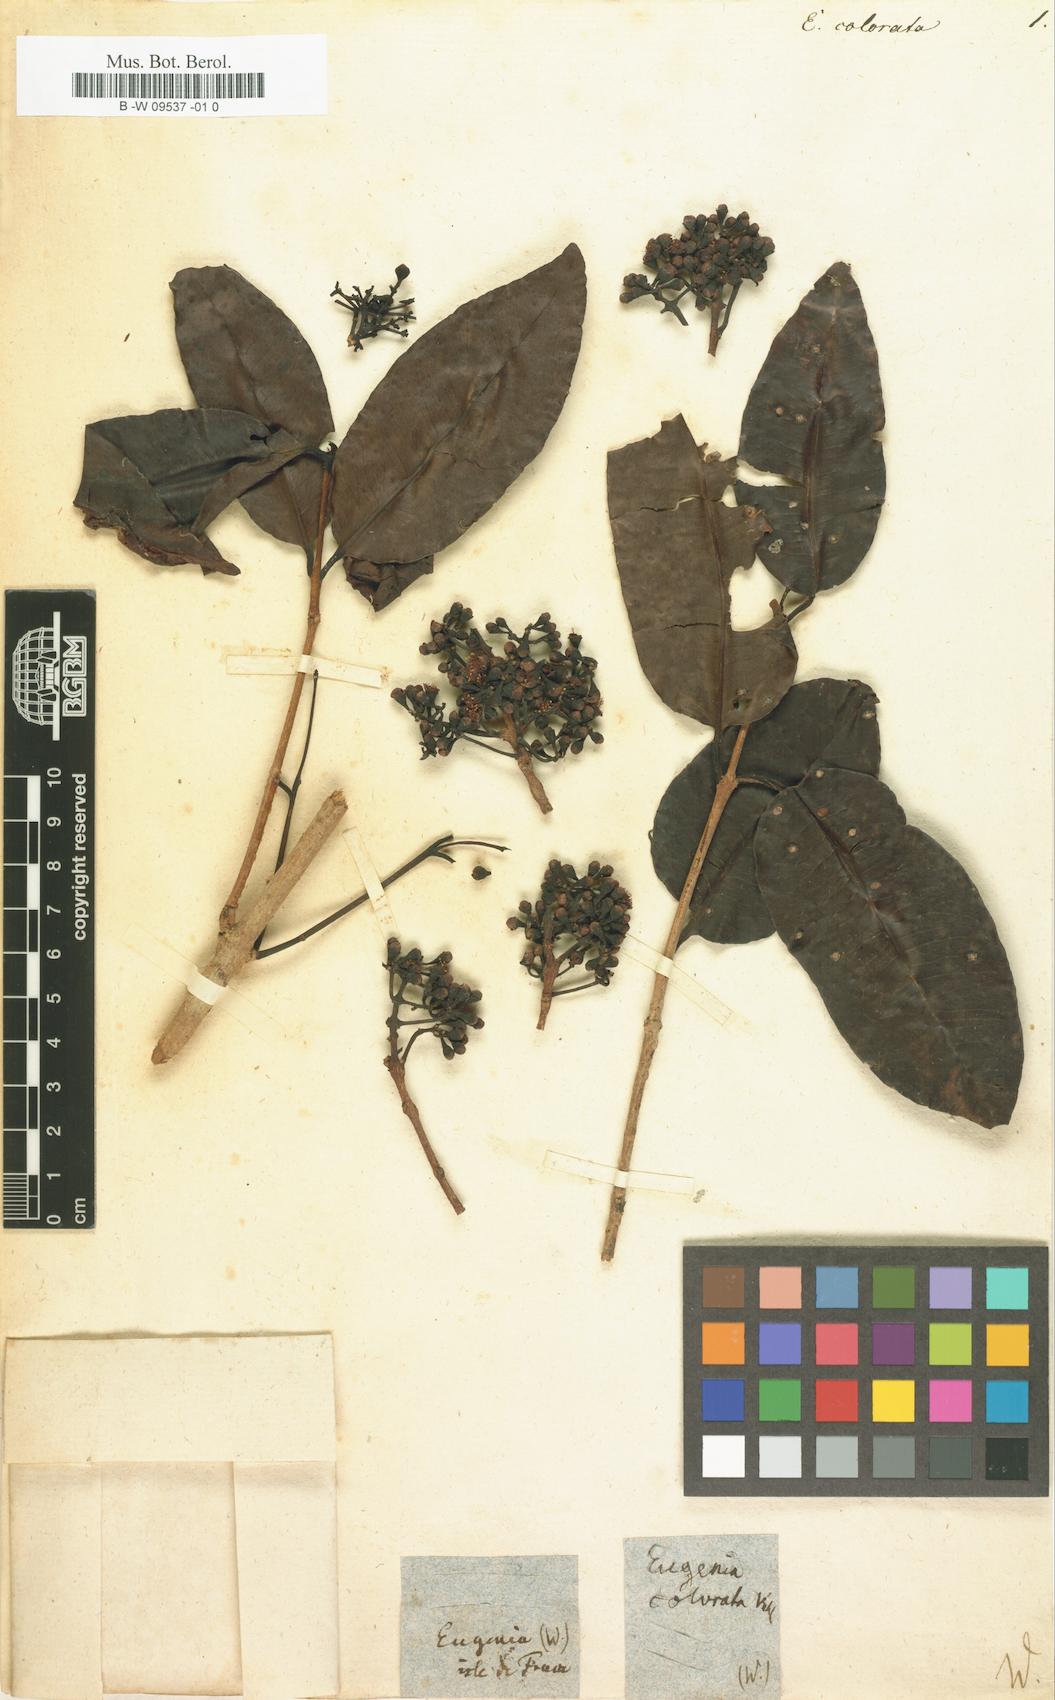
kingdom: Plantae
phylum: Tracheophyta
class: Magnoliopsida
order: Myrtales
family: Myrtaceae
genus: Syzygium
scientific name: Syzygium subdecussatum
